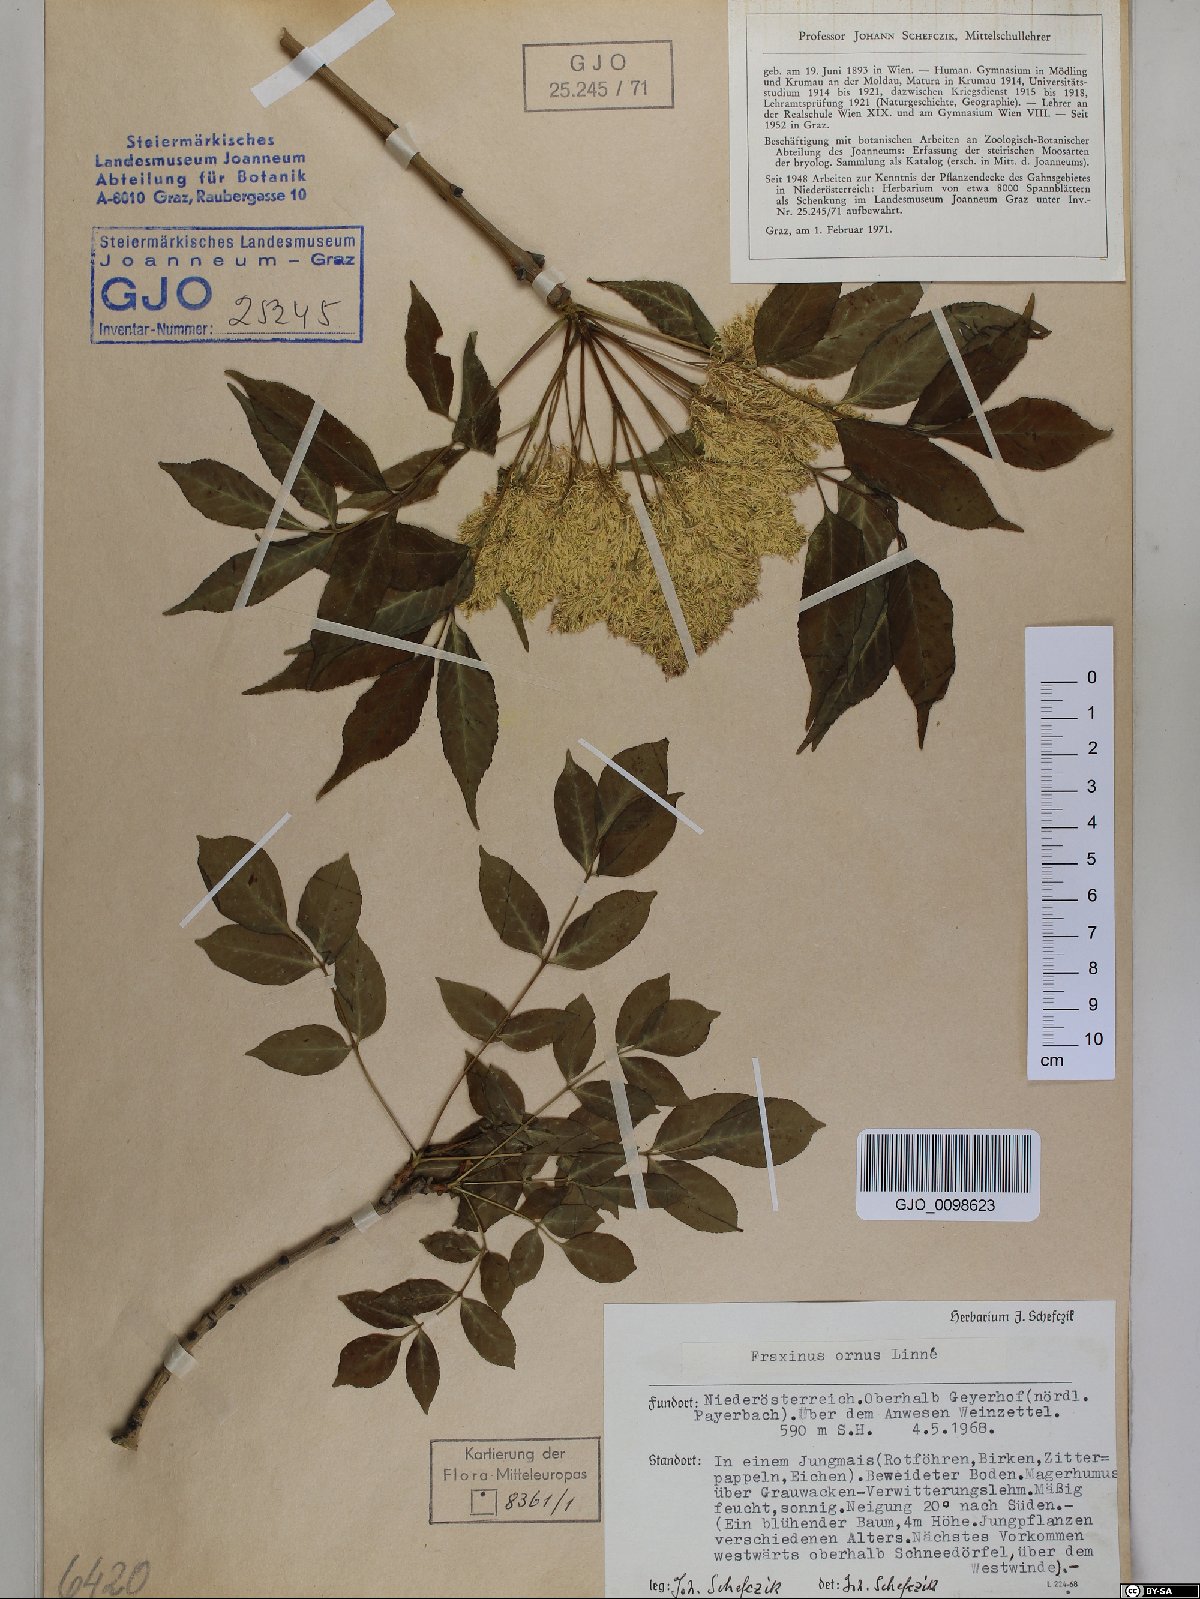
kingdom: Plantae
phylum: Tracheophyta
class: Magnoliopsida
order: Lamiales
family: Oleaceae
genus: Fraxinus
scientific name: Fraxinus ornus
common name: Manna ash
